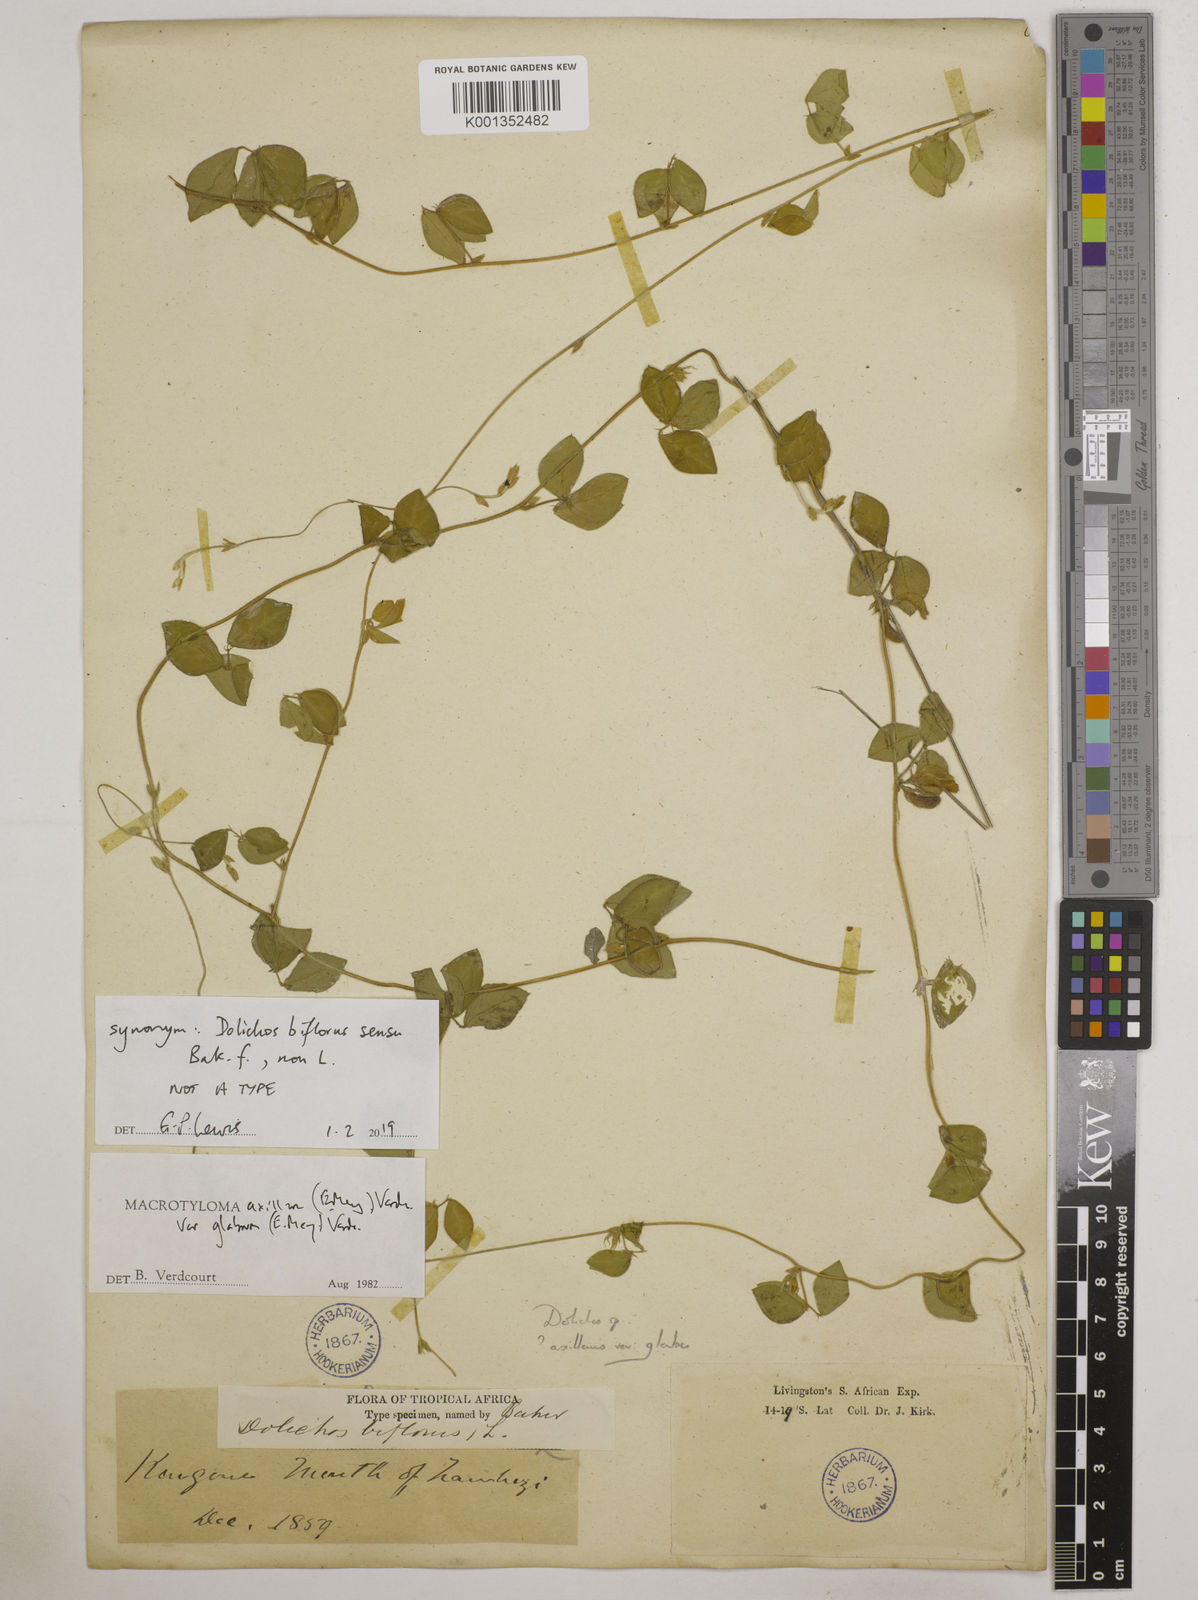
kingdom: Plantae
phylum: Tracheophyta
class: Magnoliopsida
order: Fabales
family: Fabaceae
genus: Macrotyloma
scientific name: Macrotyloma
